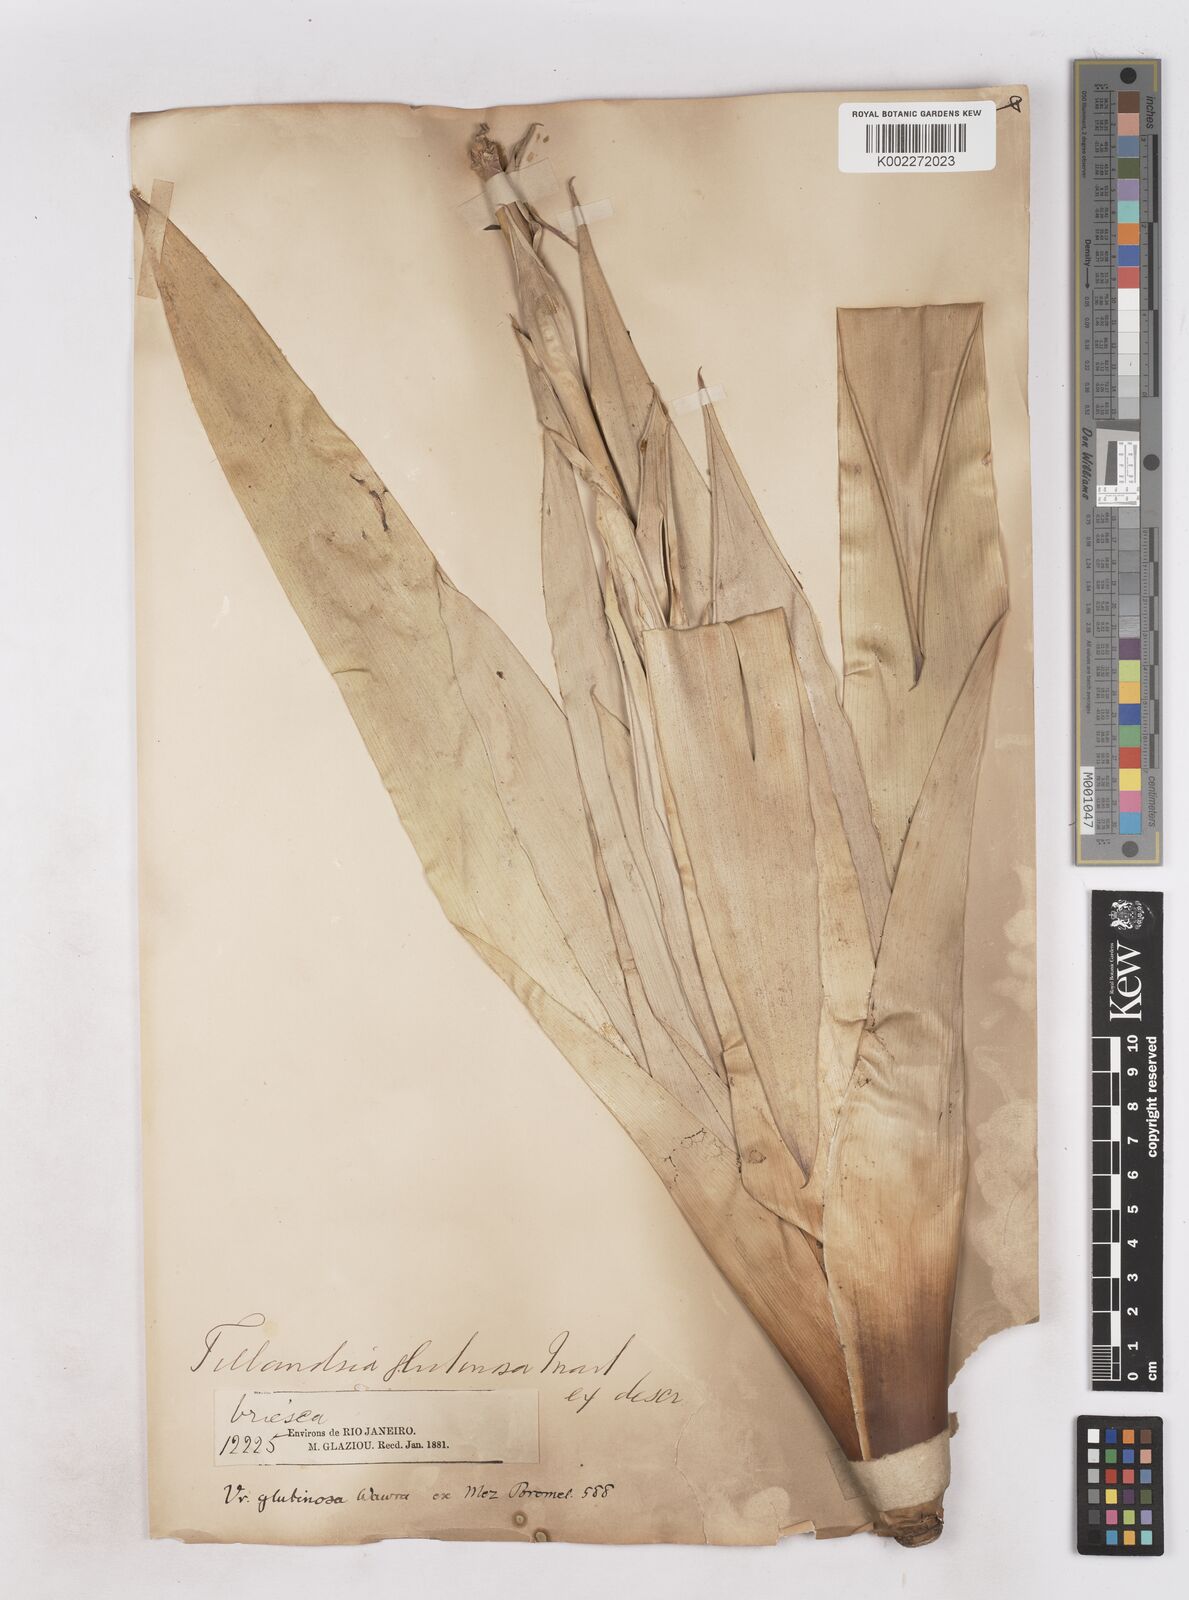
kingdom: Plantae
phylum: Tracheophyta
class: Liliopsida
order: Poales
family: Bromeliaceae
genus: Vriesea
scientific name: Vriesea neoglutinosa
